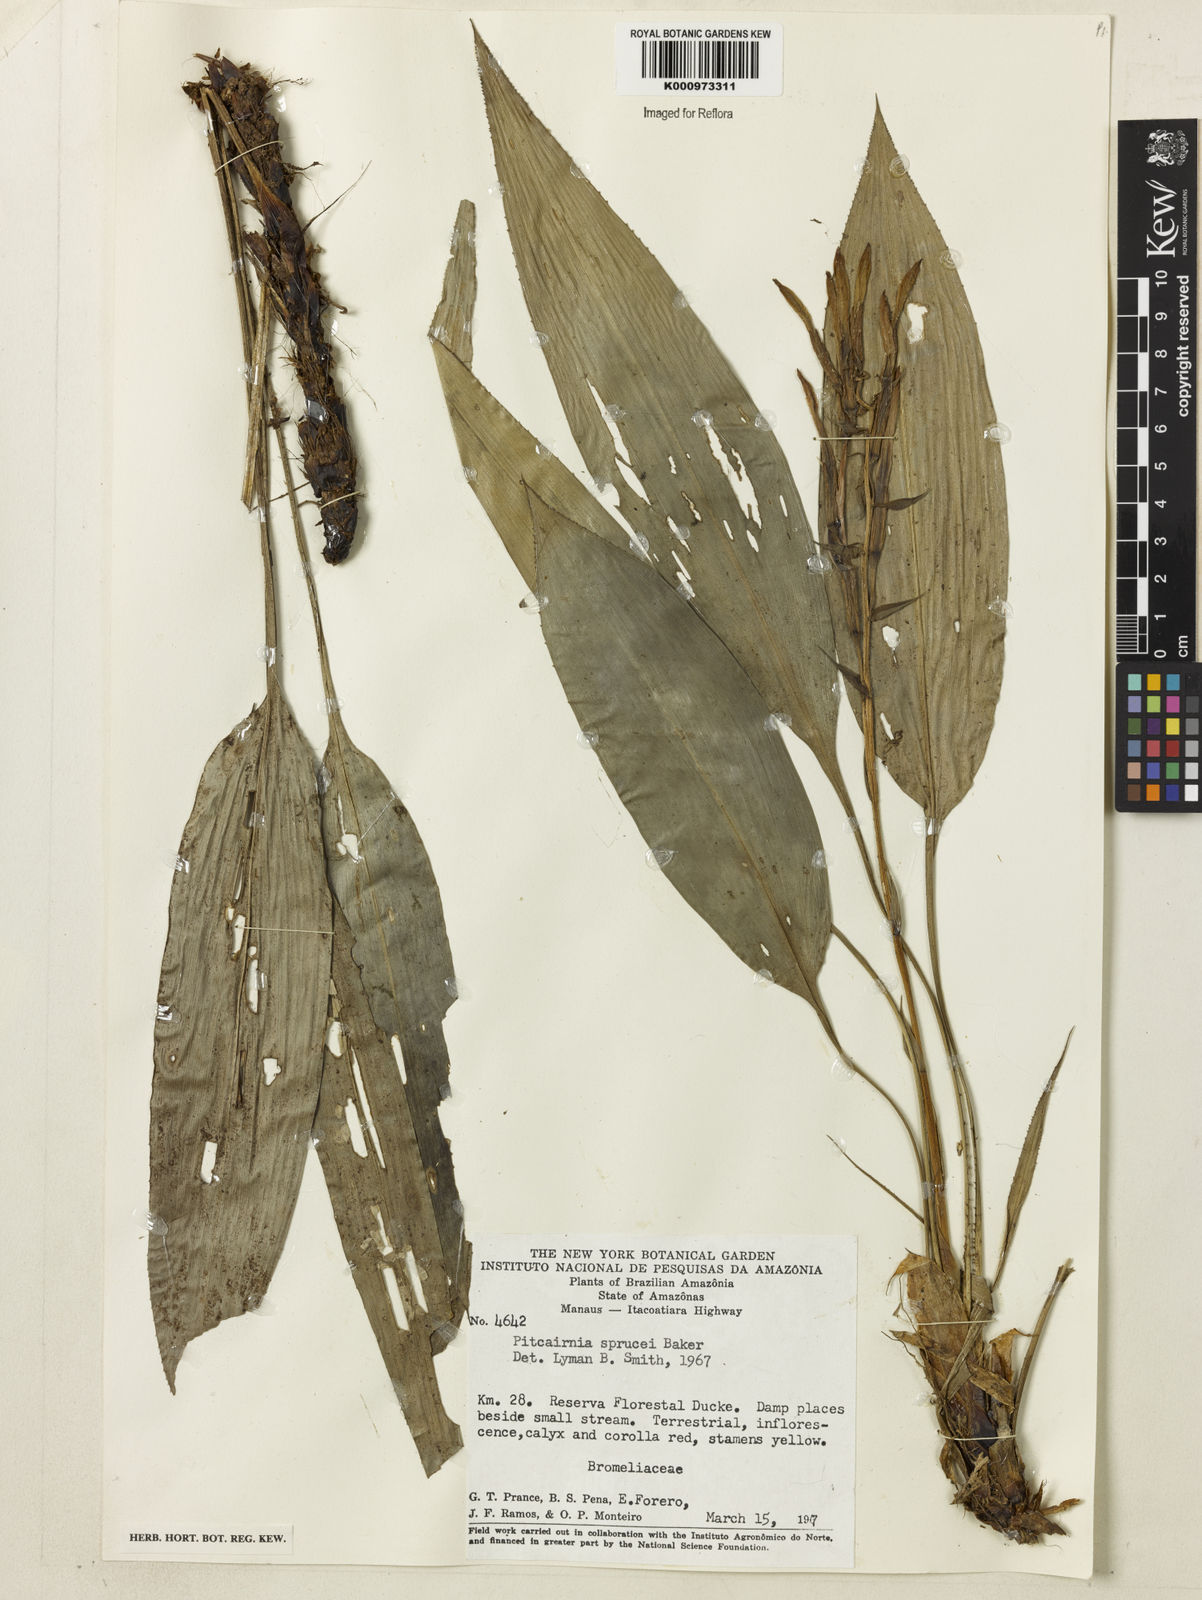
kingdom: Plantae
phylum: Tracheophyta
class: Liliopsida
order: Poales
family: Bromeliaceae
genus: Pitcairnia
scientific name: Pitcairnia sprucei
